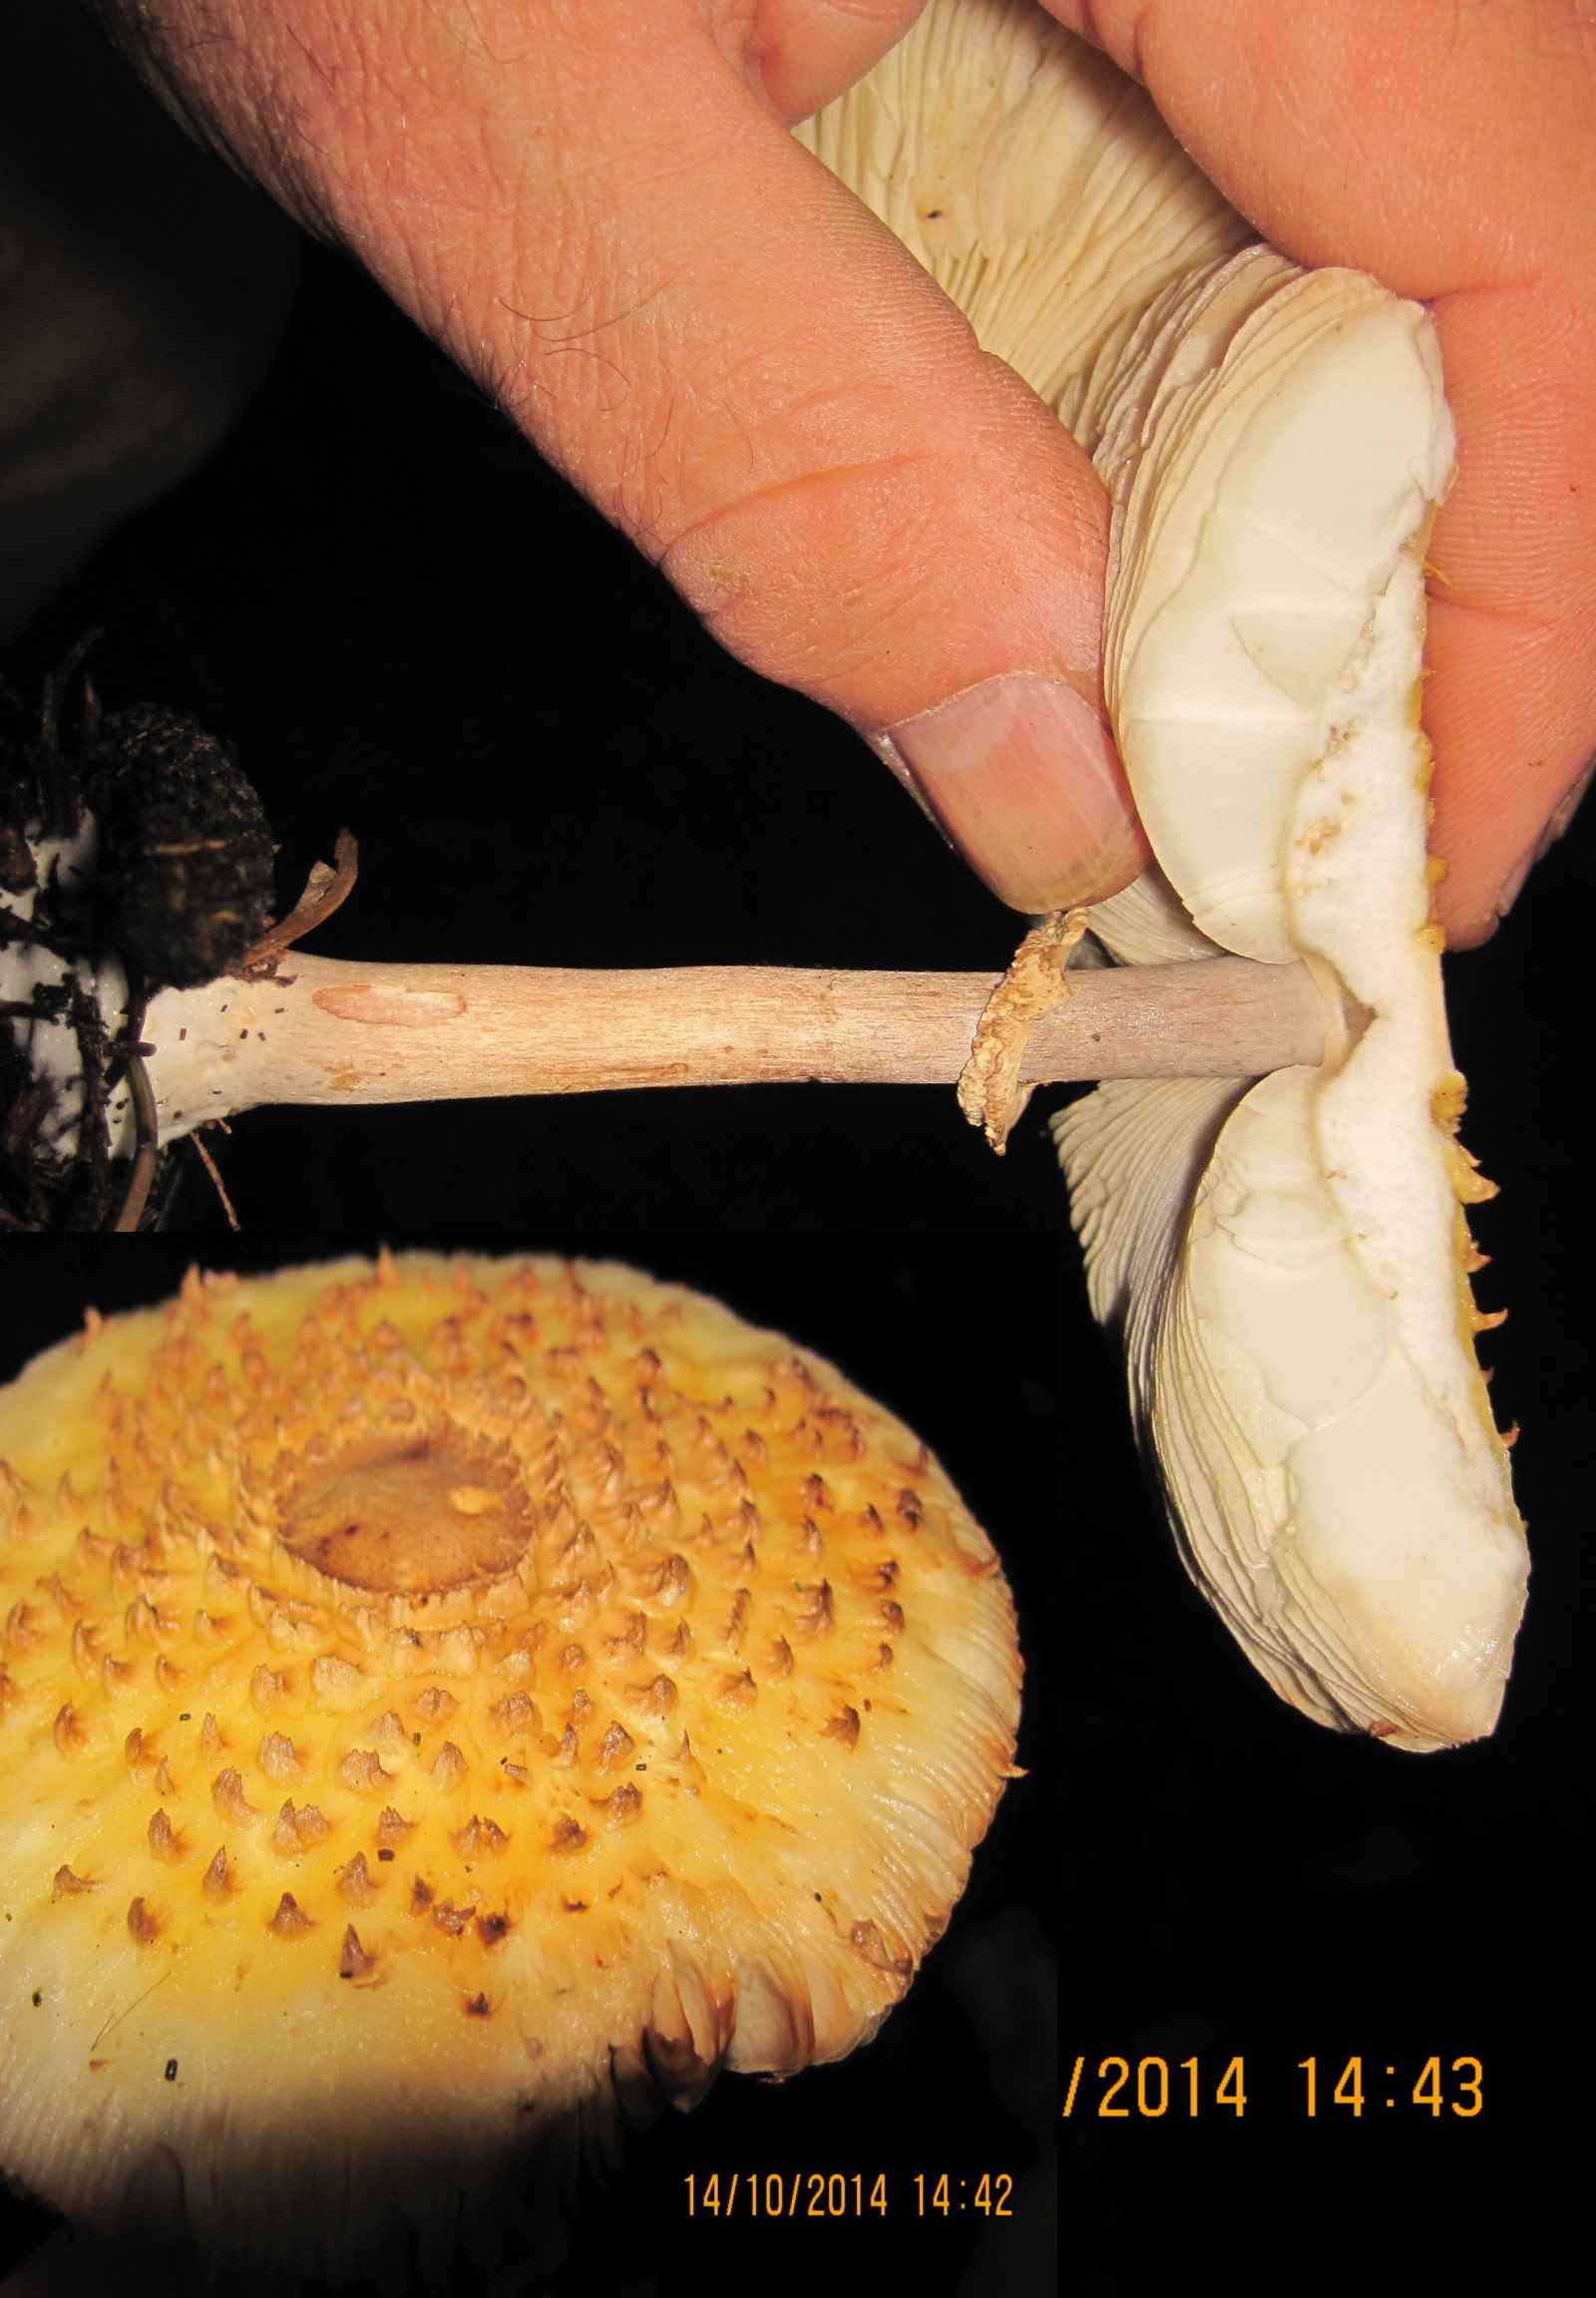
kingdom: Fungi
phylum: Basidiomycota
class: Agaricomycetes
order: Agaricales
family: Agaricaceae
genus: Echinoderma
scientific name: Echinoderma asperum
